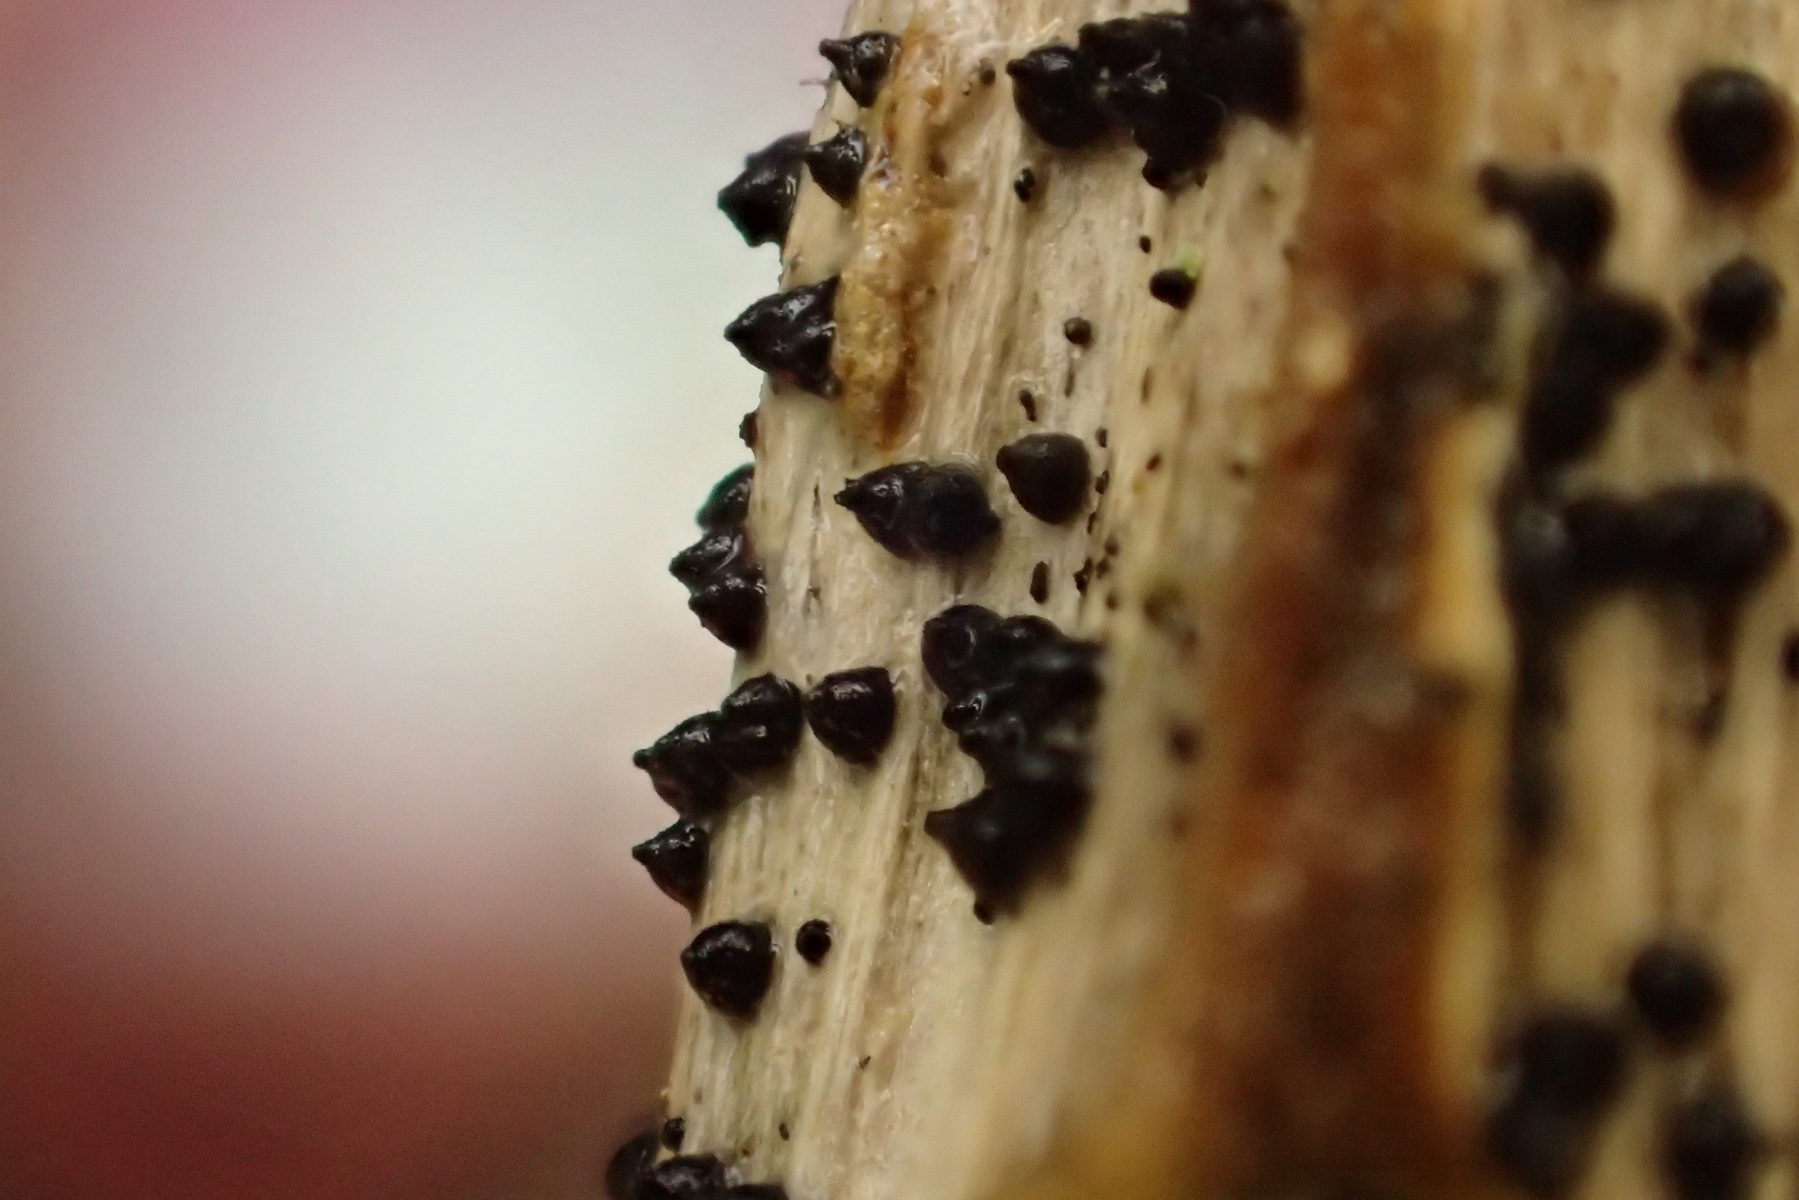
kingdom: Fungi
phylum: Ascomycota
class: Dothideomycetes
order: Pleosporales
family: Leptosphaeriaceae
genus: Leptosphaeria
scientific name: Leptosphaeria acuta
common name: spids kulkegle
